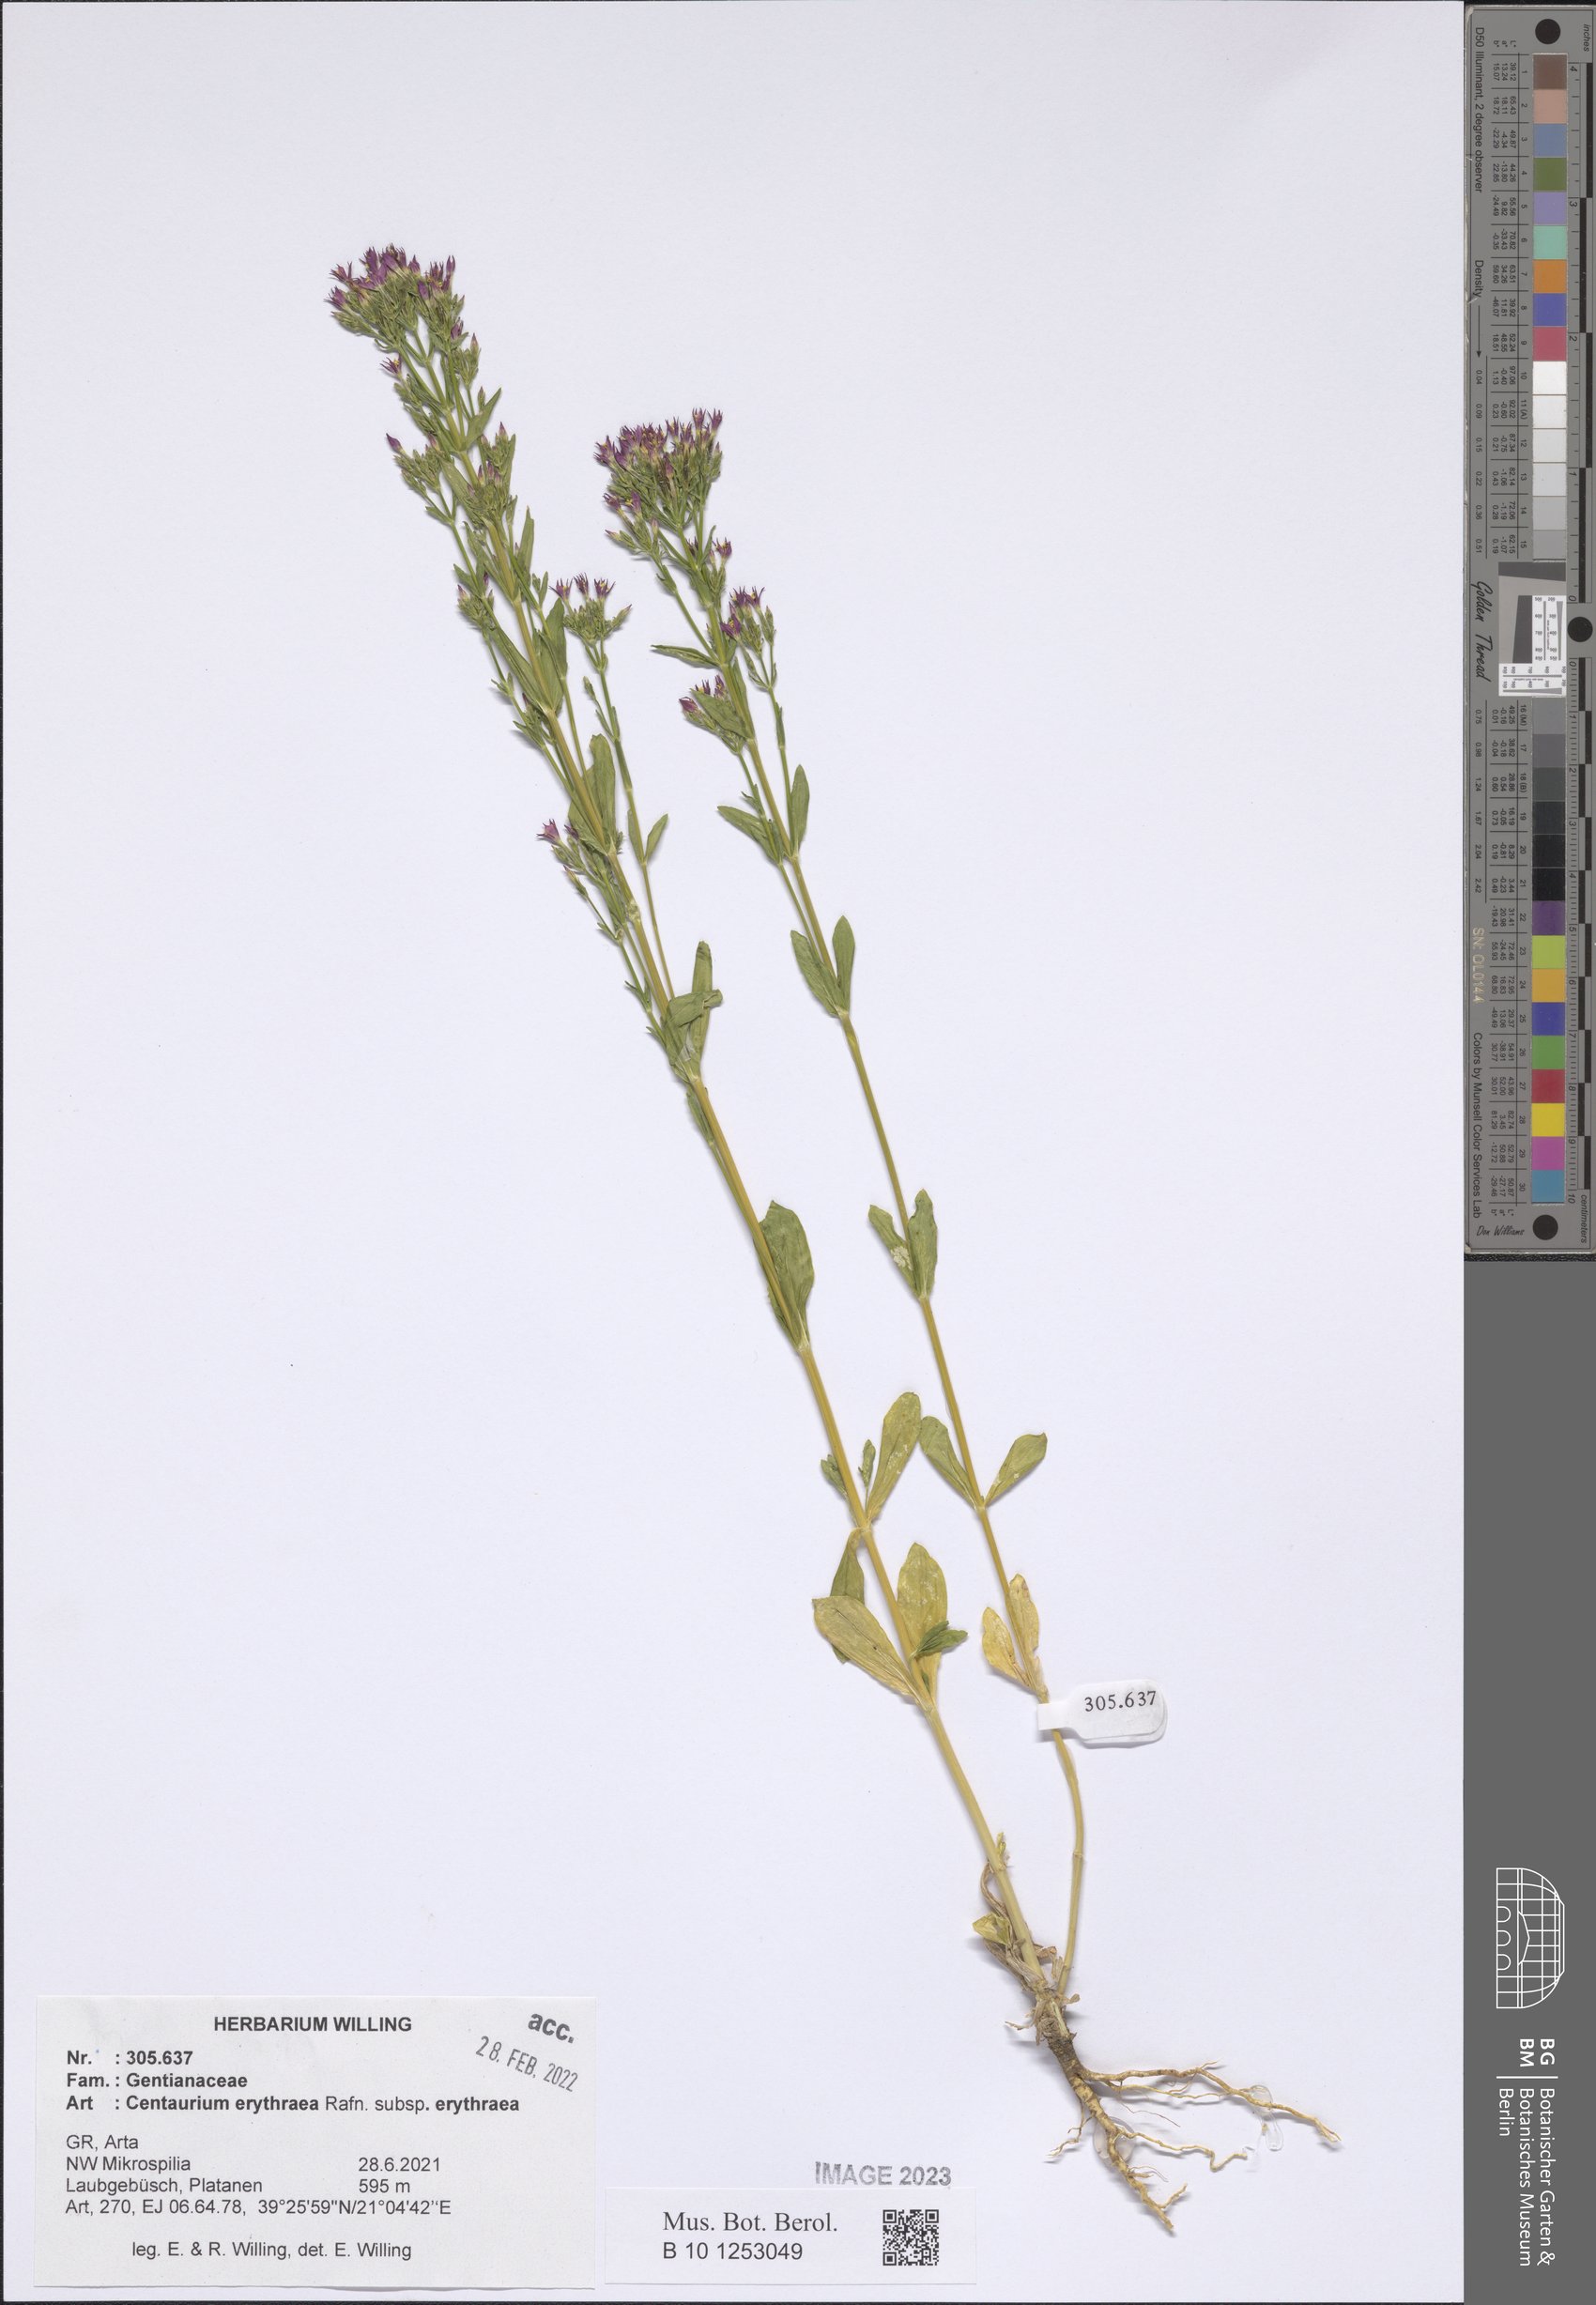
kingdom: Plantae
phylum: Tracheophyta
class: Magnoliopsida
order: Gentianales
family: Gentianaceae
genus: Centaurium
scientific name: Centaurium erythraea
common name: Common centaury
